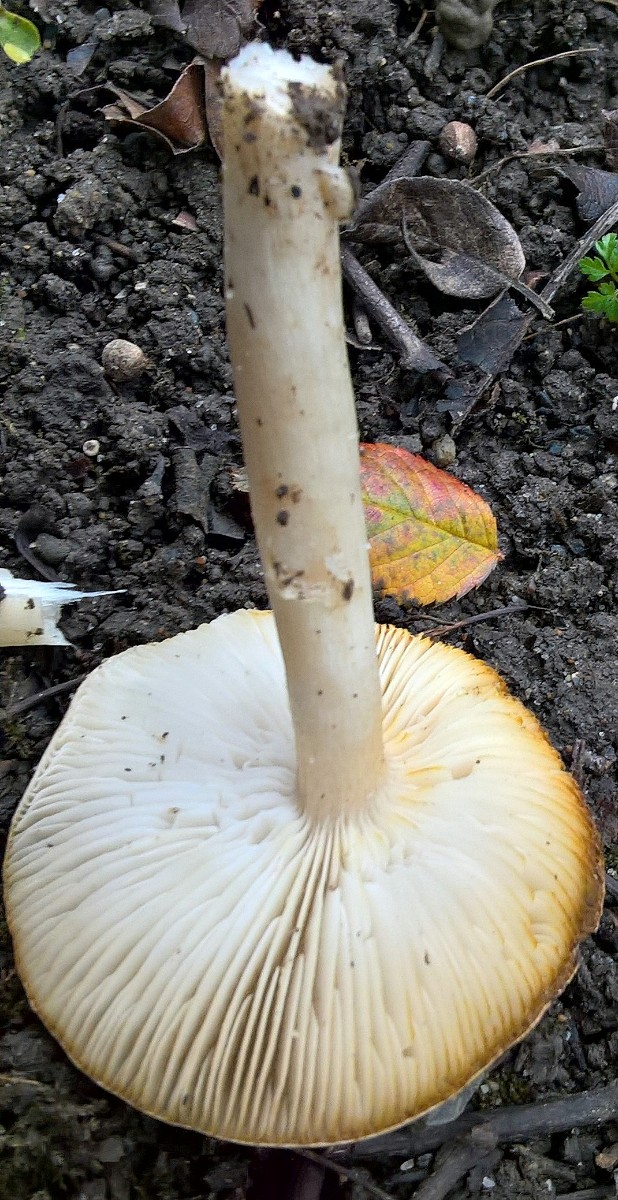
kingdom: Fungi
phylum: Basidiomycota
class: Agaricomycetes
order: Agaricales
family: Tricholomataceae
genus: Tricholoma
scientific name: Tricholoma scalpturatum
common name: gulplettet ridderhat
